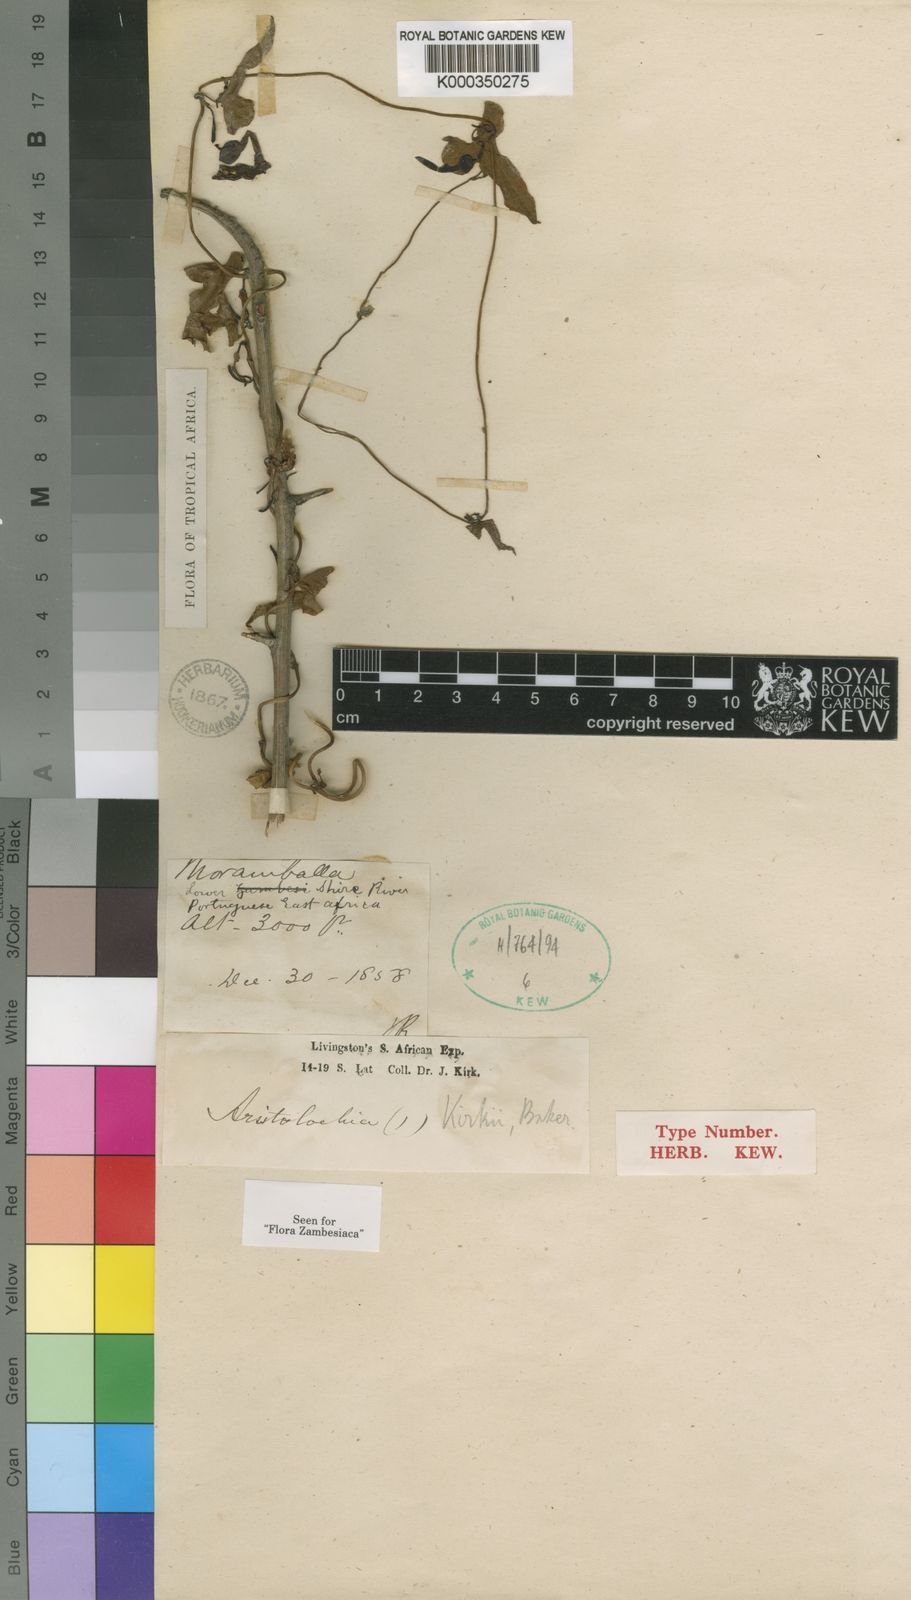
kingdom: Plantae
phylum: Tracheophyta
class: Magnoliopsida
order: Piperales
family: Aristolochiaceae
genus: Aristolochia
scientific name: Aristolochia albida
